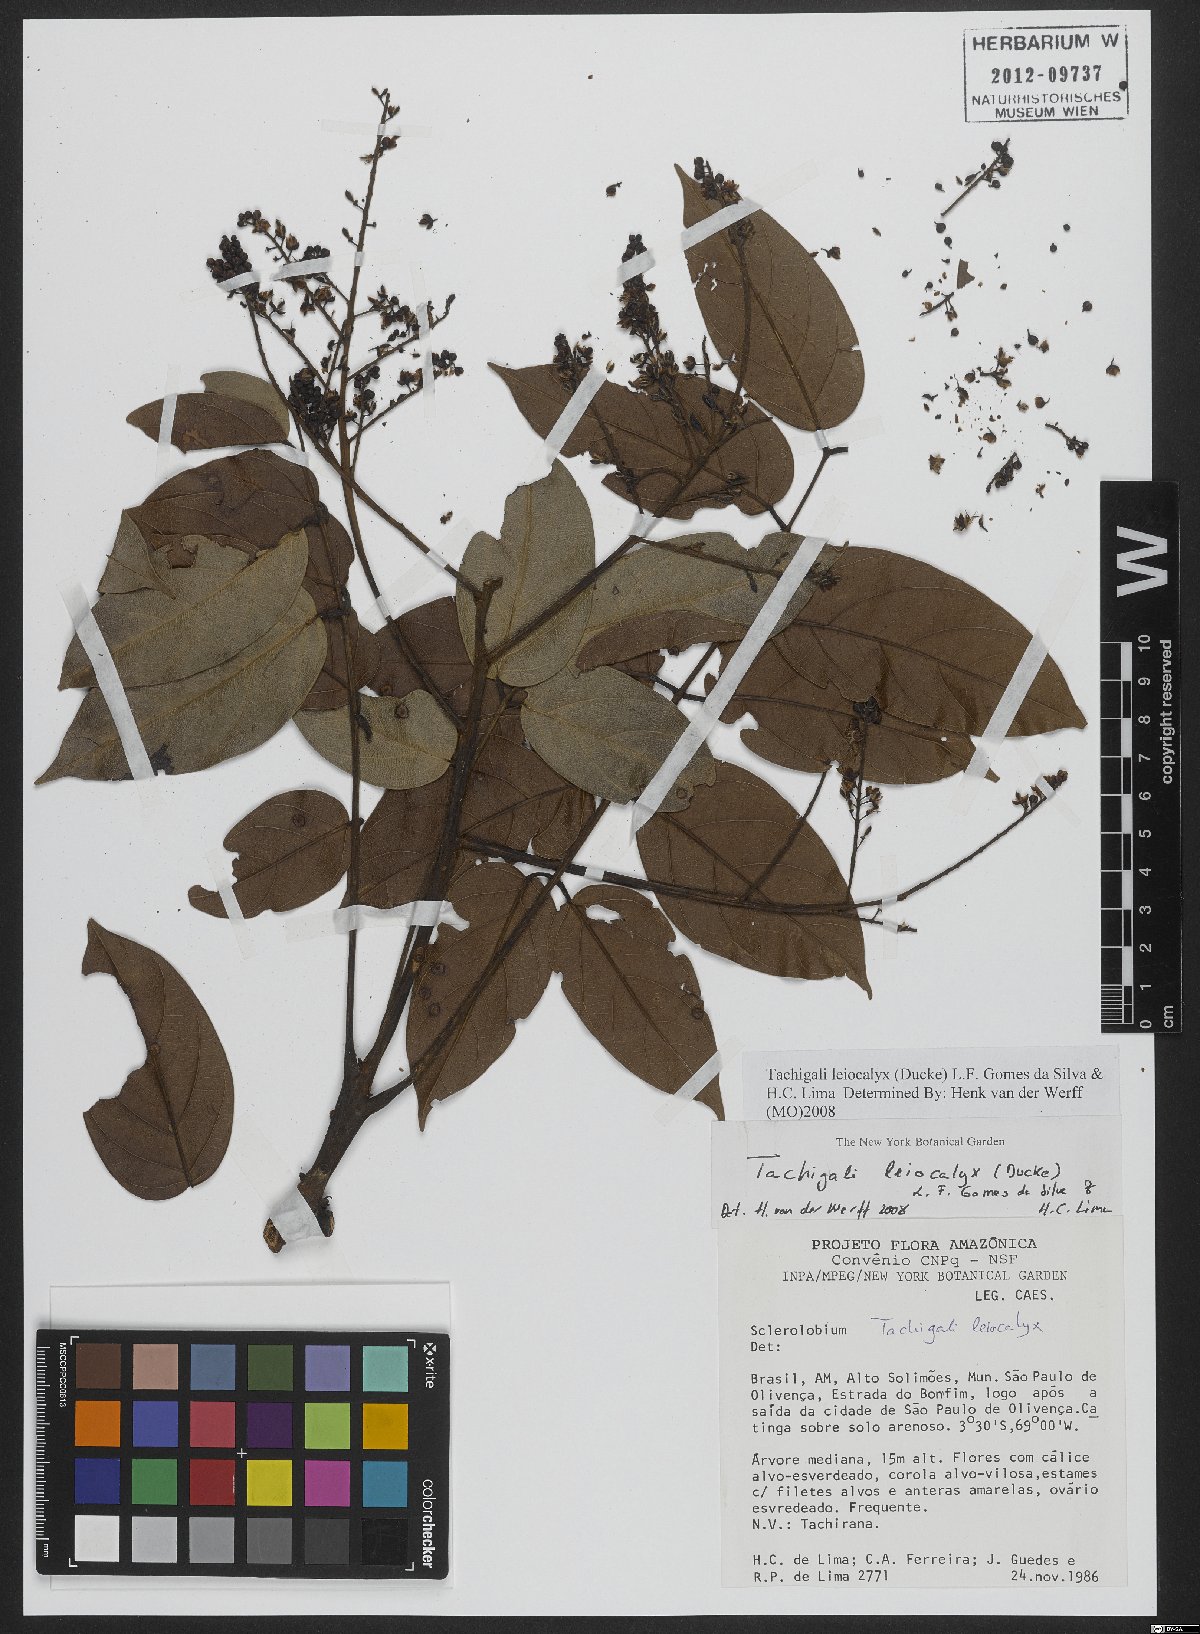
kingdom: Plantae
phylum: Tracheophyta
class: Magnoliopsida
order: Fabales
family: Fabaceae
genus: Tachigali
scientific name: Tachigali leiocalyx
